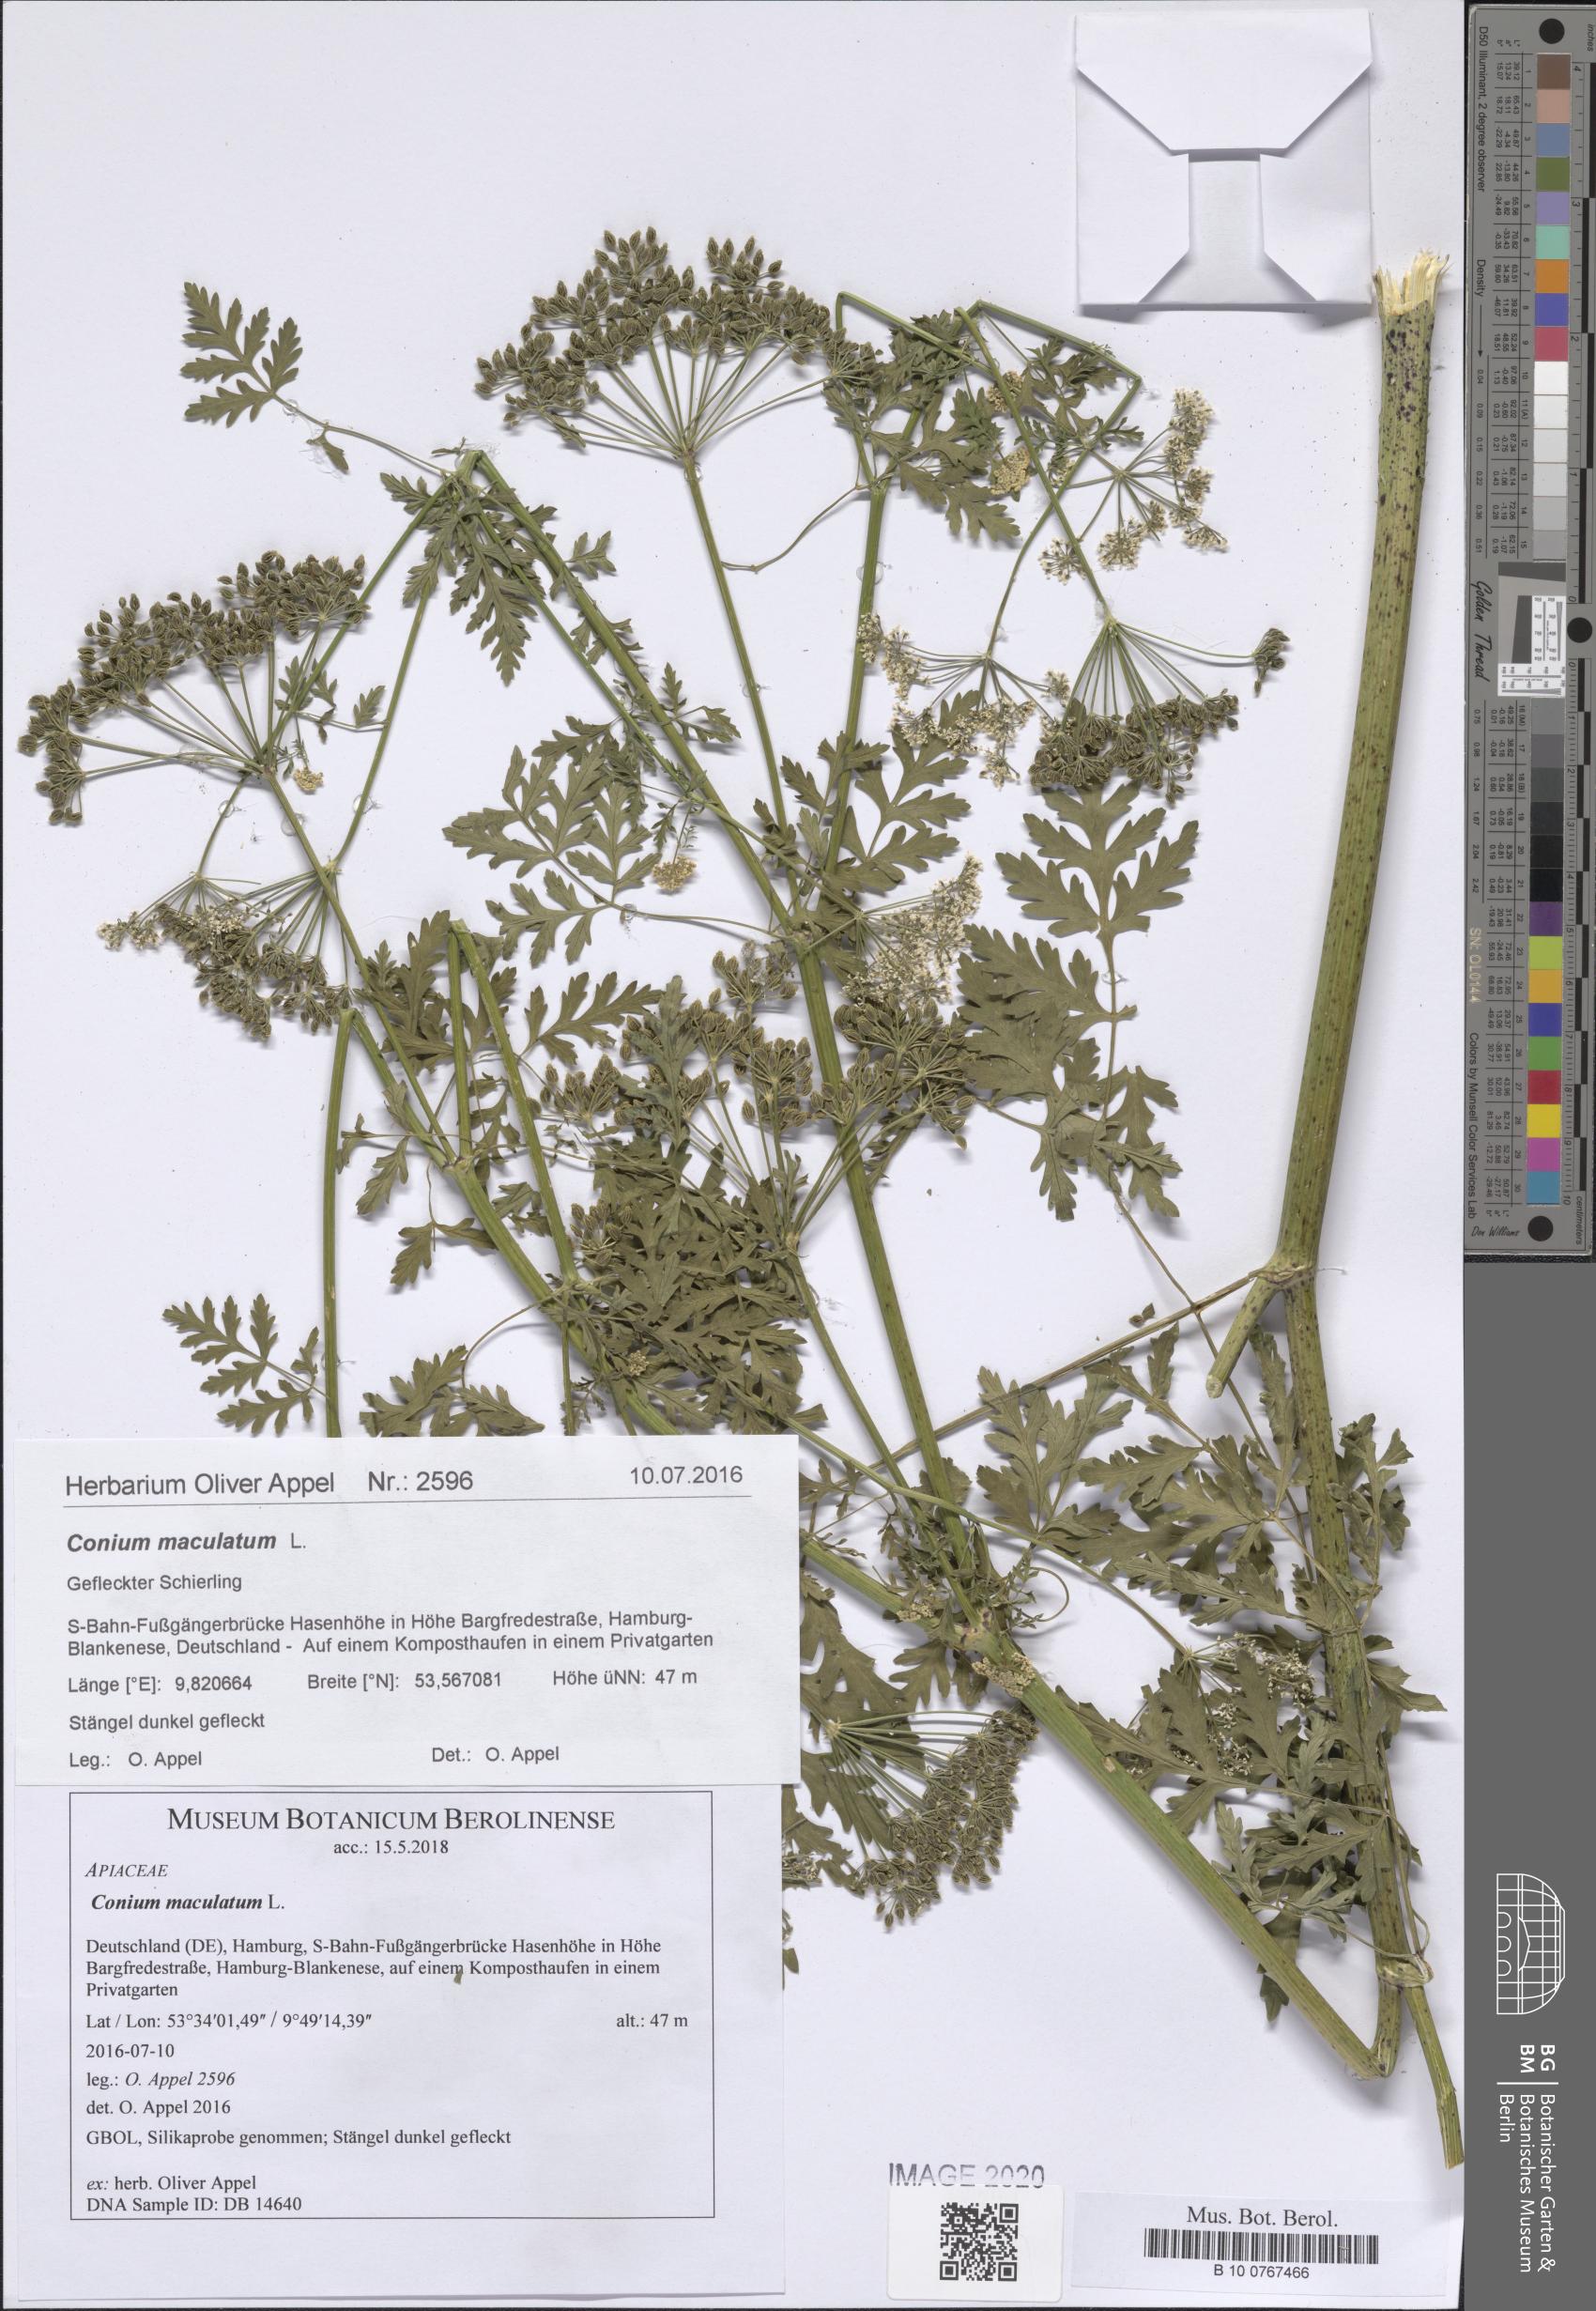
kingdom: Plantae
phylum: Tracheophyta
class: Magnoliopsida
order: Apiales
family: Apiaceae
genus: Conium
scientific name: Conium maculatum
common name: Hemlock
